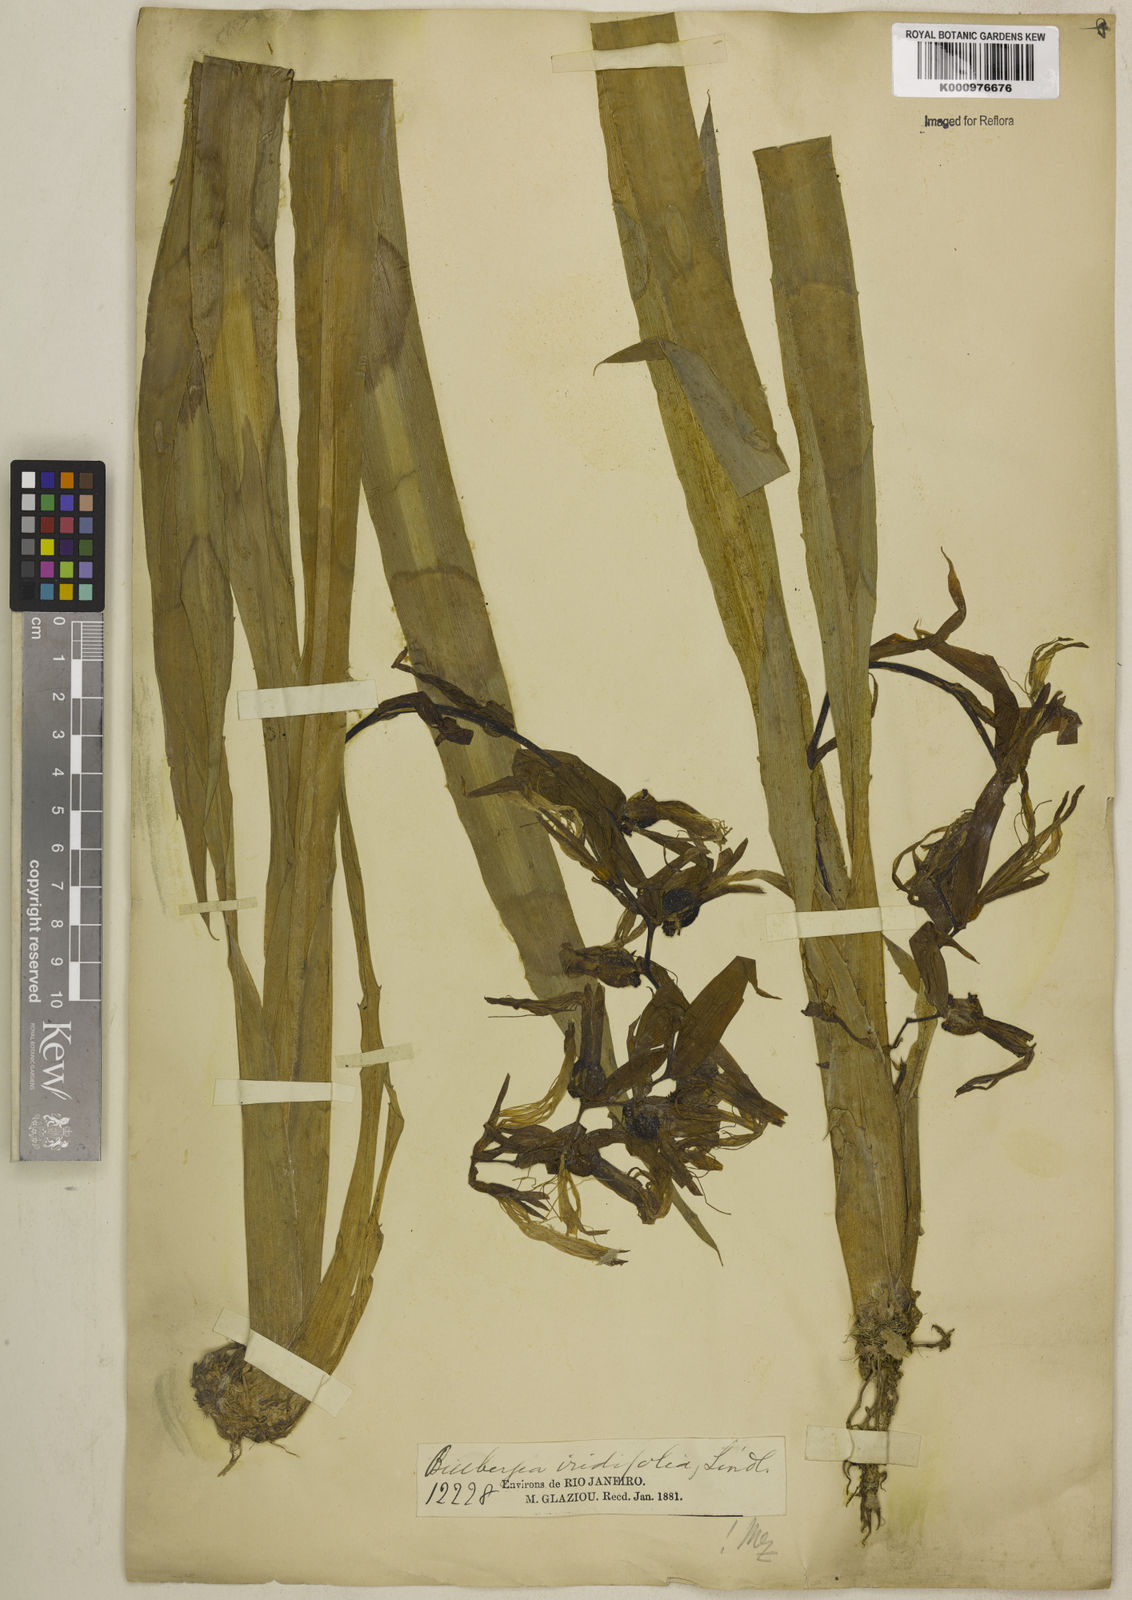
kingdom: Plantae
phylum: Tracheophyta
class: Liliopsida
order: Poales
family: Bromeliaceae
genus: Billbergia
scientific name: Billbergia iridifolia
